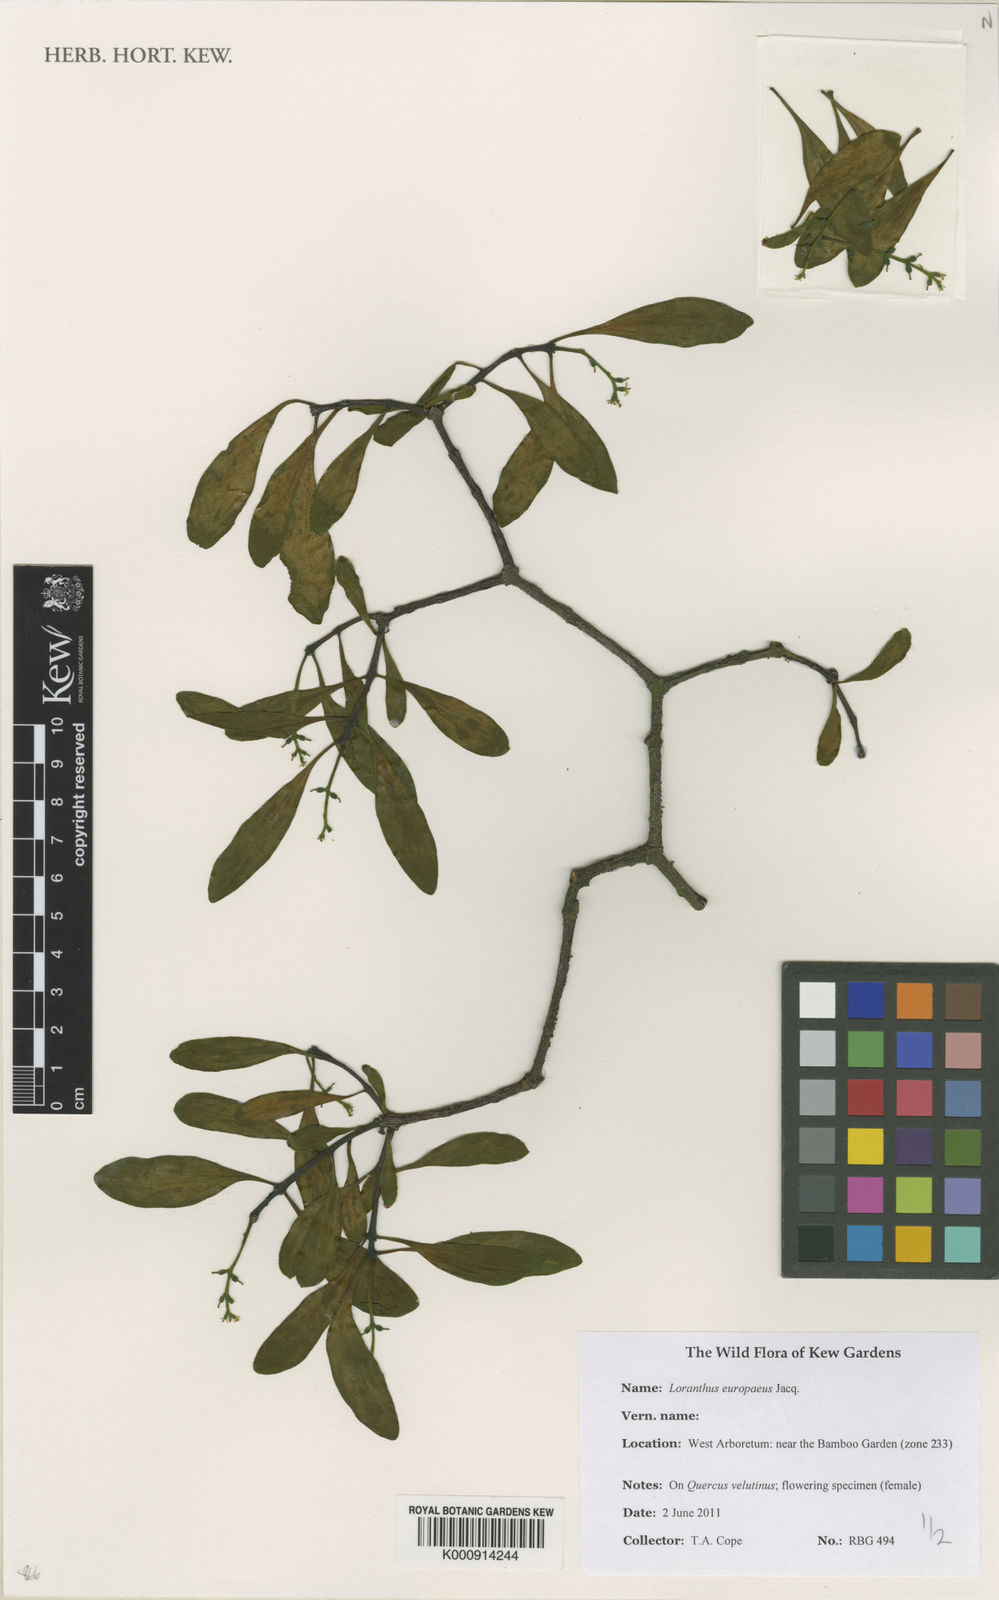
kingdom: Plantae
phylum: Tracheophyta
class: Magnoliopsida
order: Santalales
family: Loranthaceae
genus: Loranthus
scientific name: Loranthus europaeus
